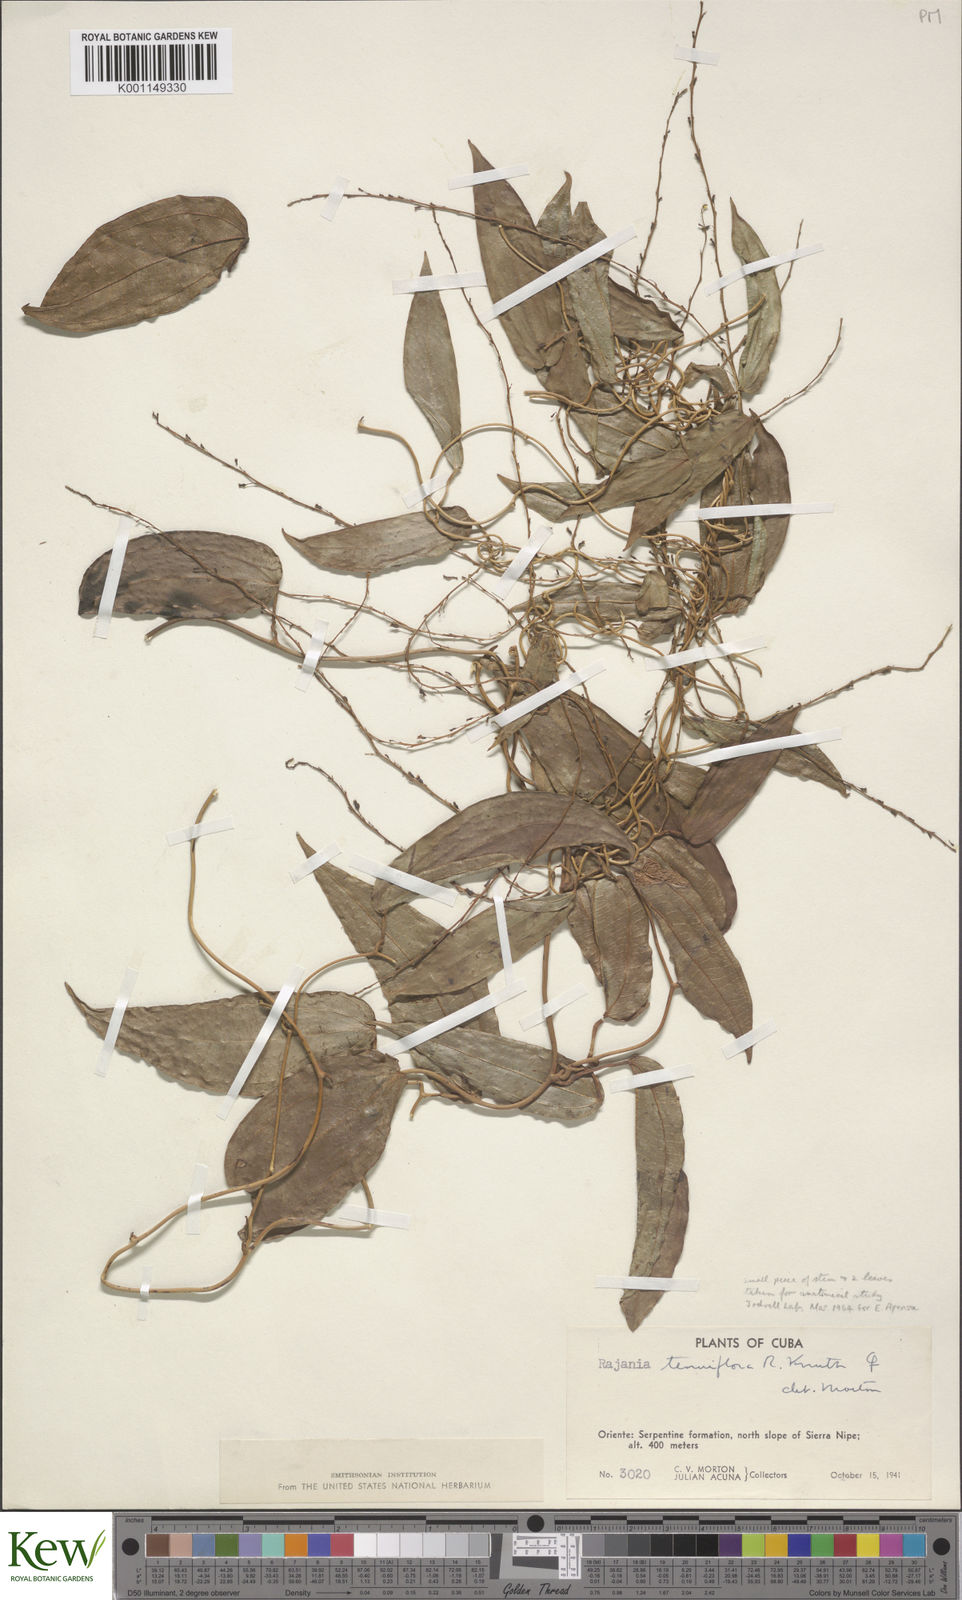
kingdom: Plantae
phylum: Tracheophyta
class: Liliopsida
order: Dioscoreales
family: Dioscoreaceae
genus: Dioscorea
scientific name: Dioscorea bulbifera
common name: Air yam
